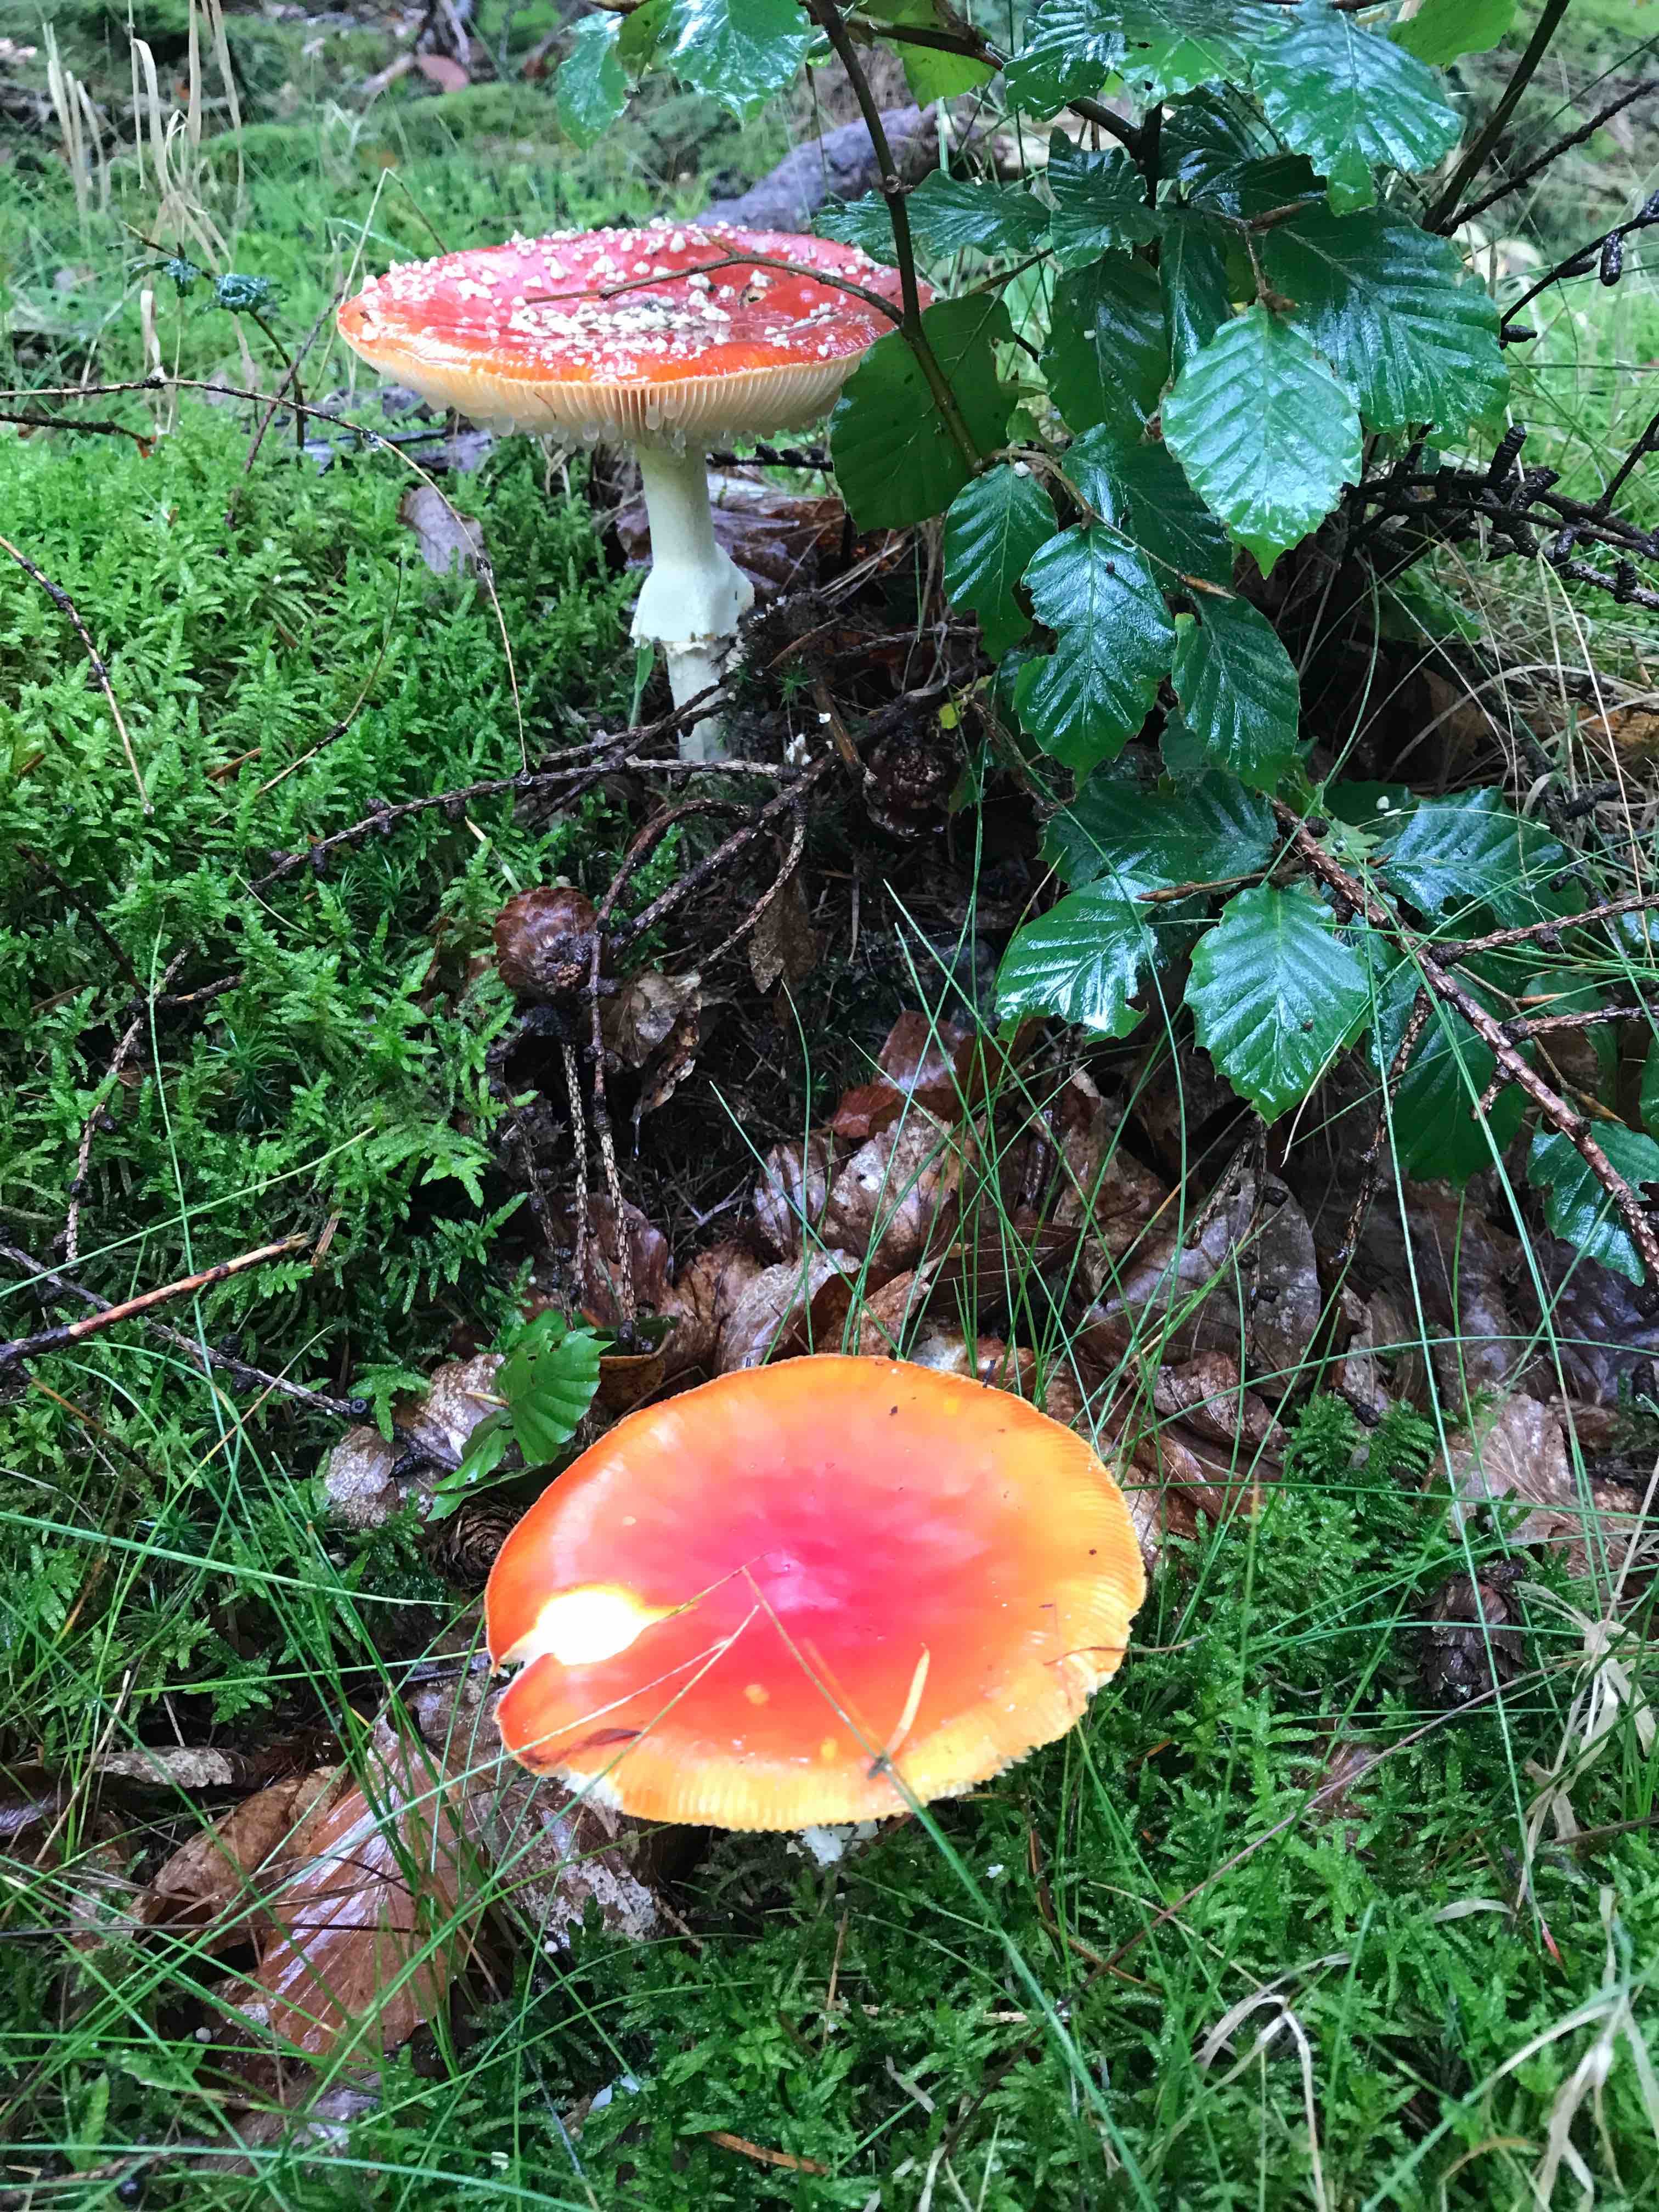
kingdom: Fungi
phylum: Basidiomycota
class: Agaricomycetes
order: Agaricales
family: Amanitaceae
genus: Amanita
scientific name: Amanita muscaria
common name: rød fluesvamp
